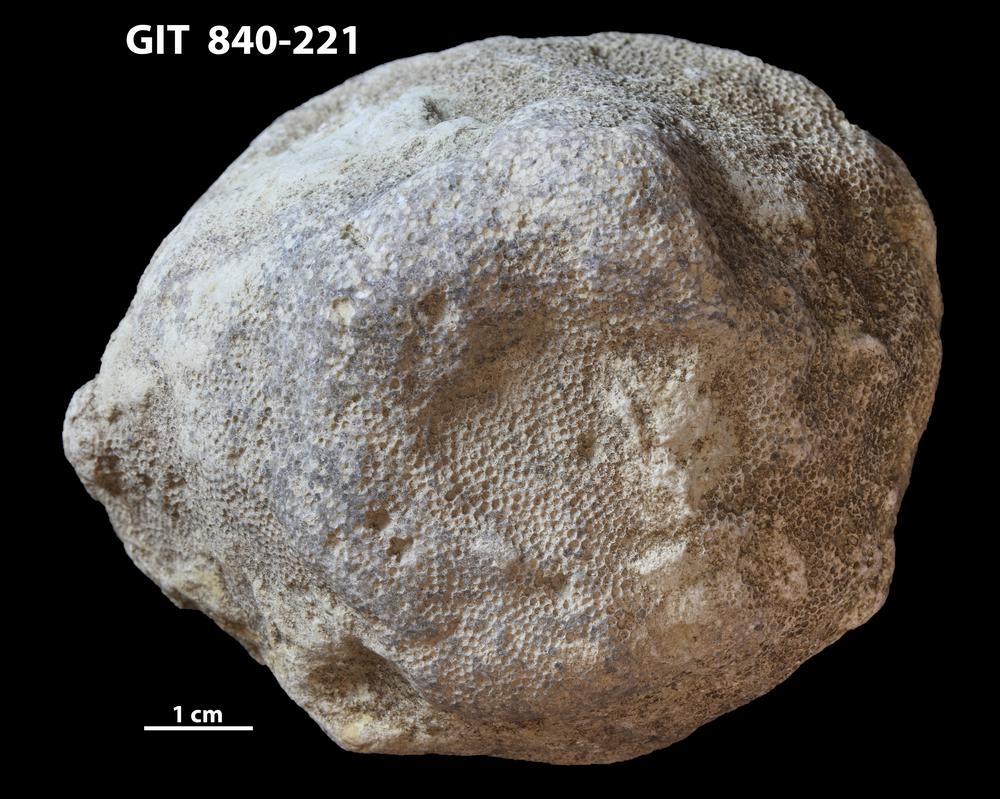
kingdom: Animalia
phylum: Cnidaria
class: Anthozoa
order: Heliolitina
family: Proheliolitidae
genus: Protoheliolites
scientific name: Protoheliolites
